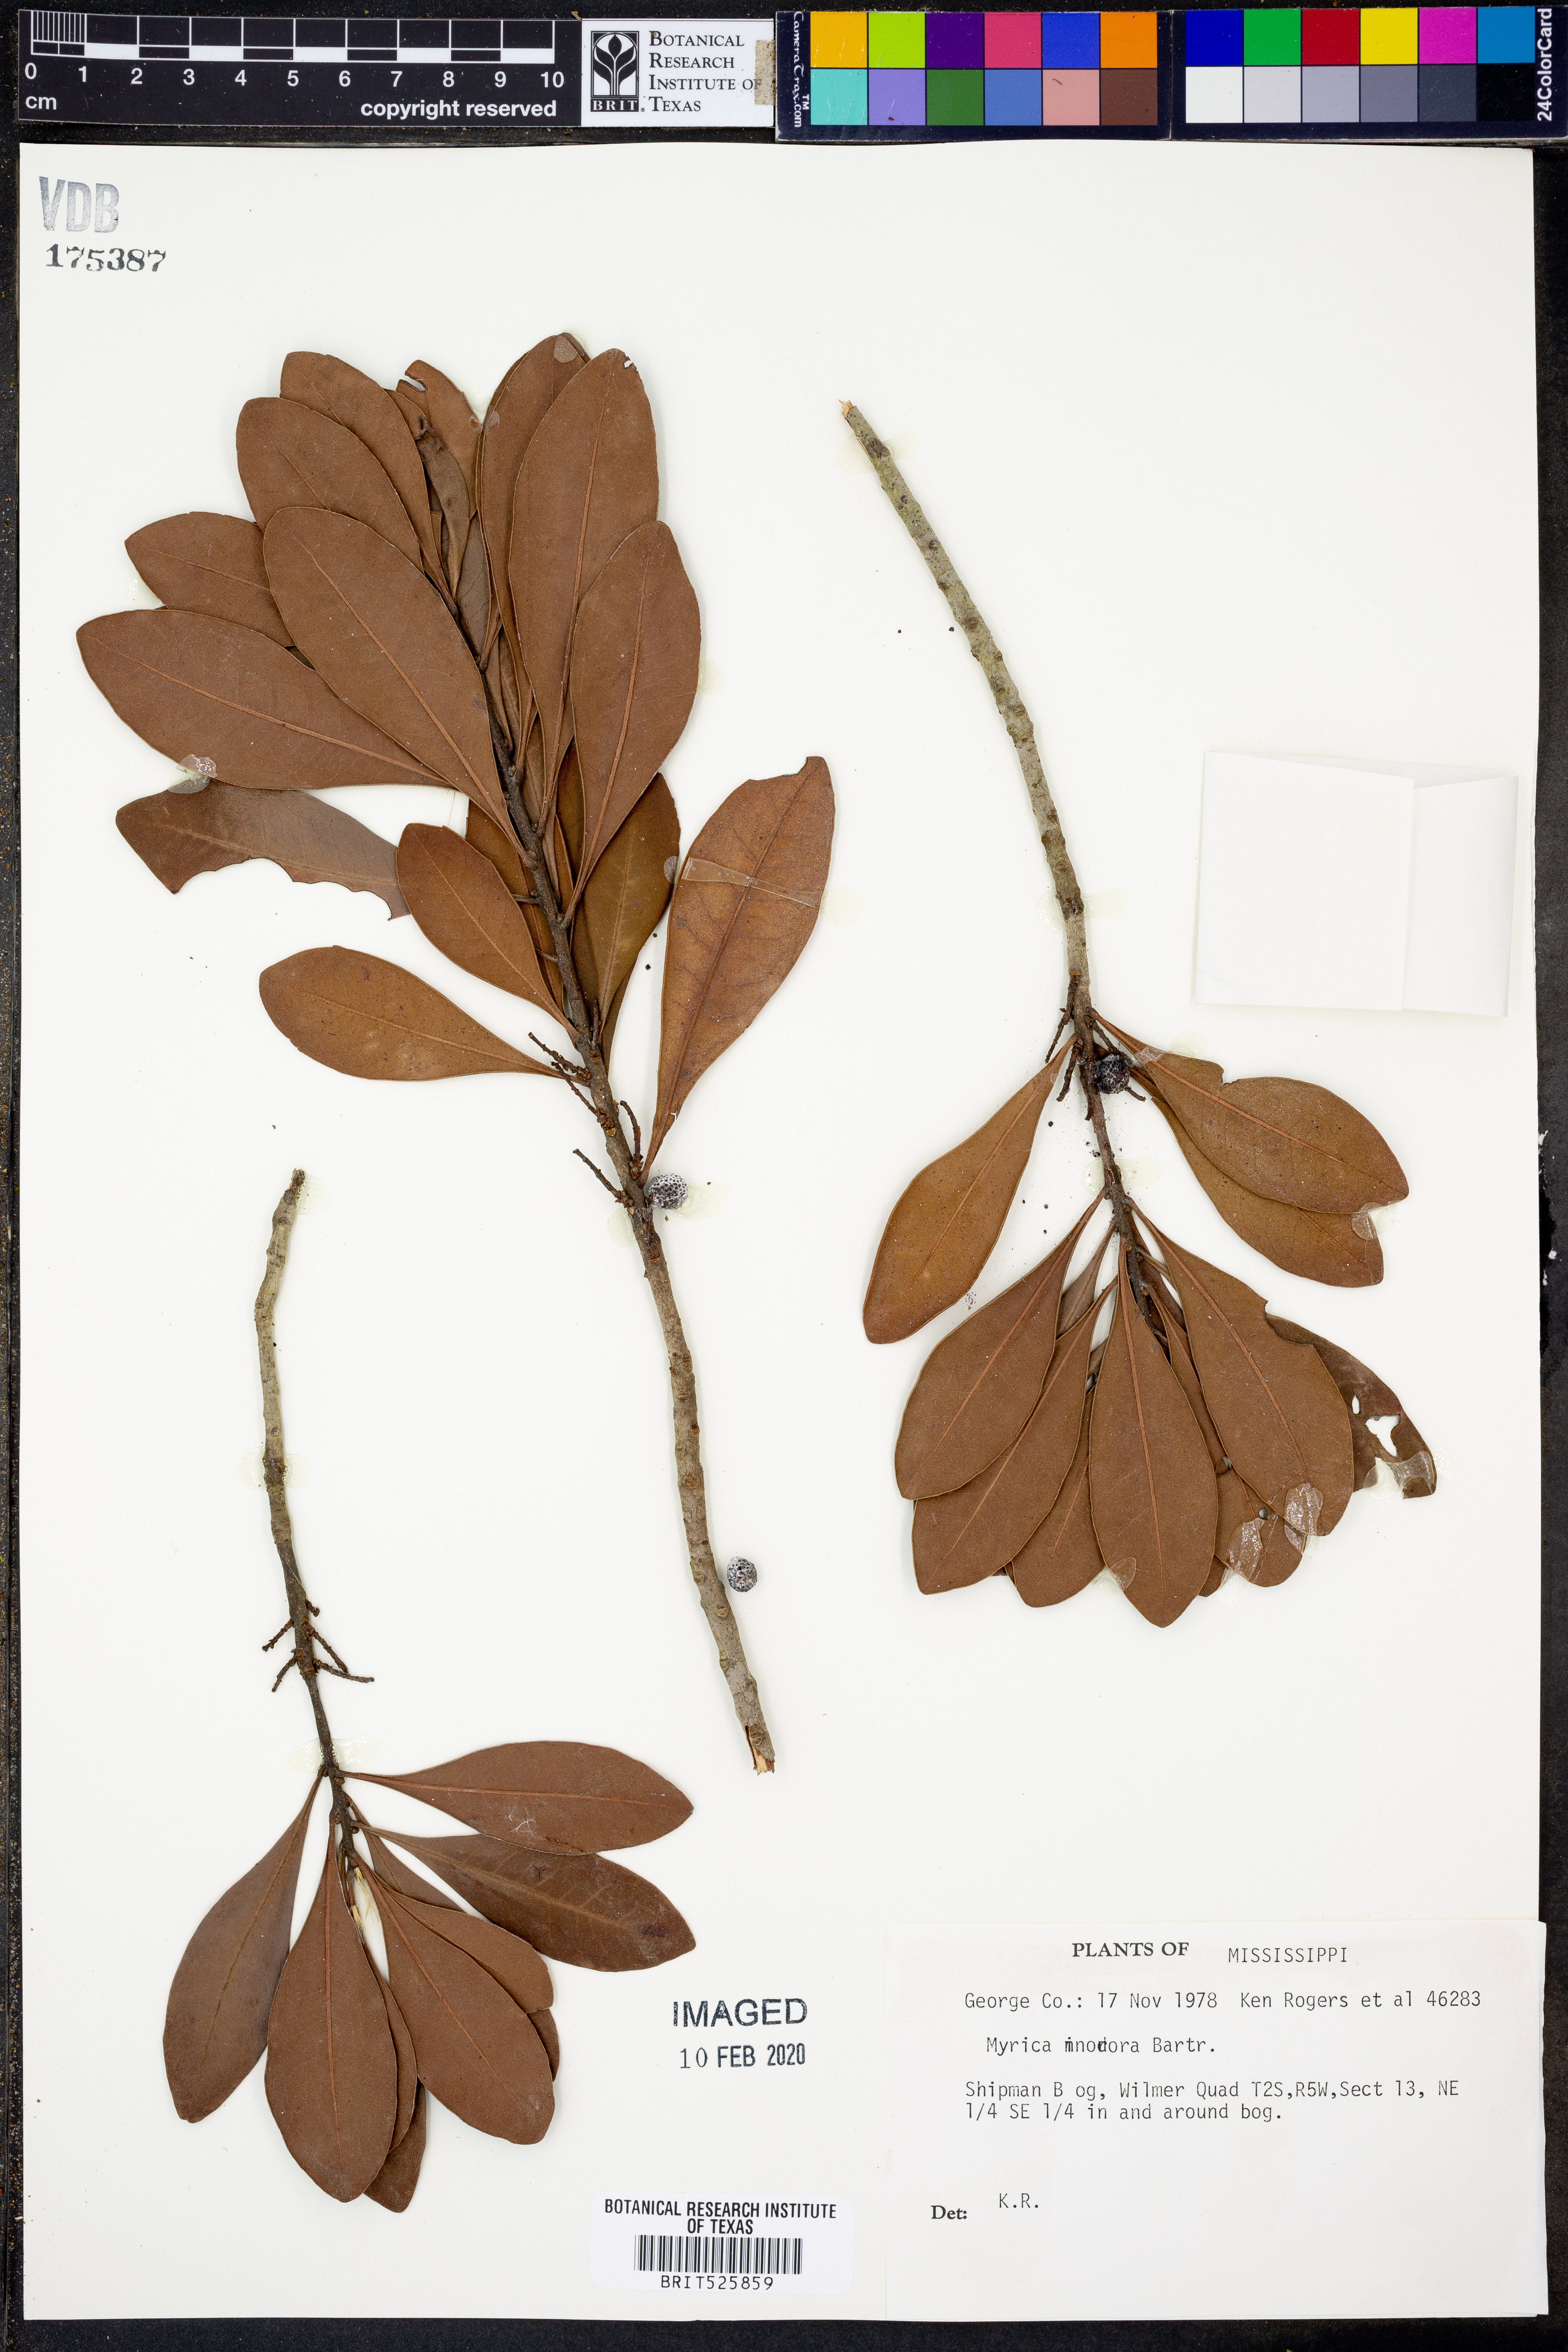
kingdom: Plantae
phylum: Tracheophyta
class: Magnoliopsida
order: Fagales
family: Myricaceae
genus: Morella
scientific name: Morella inodora
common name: Candle-berry
